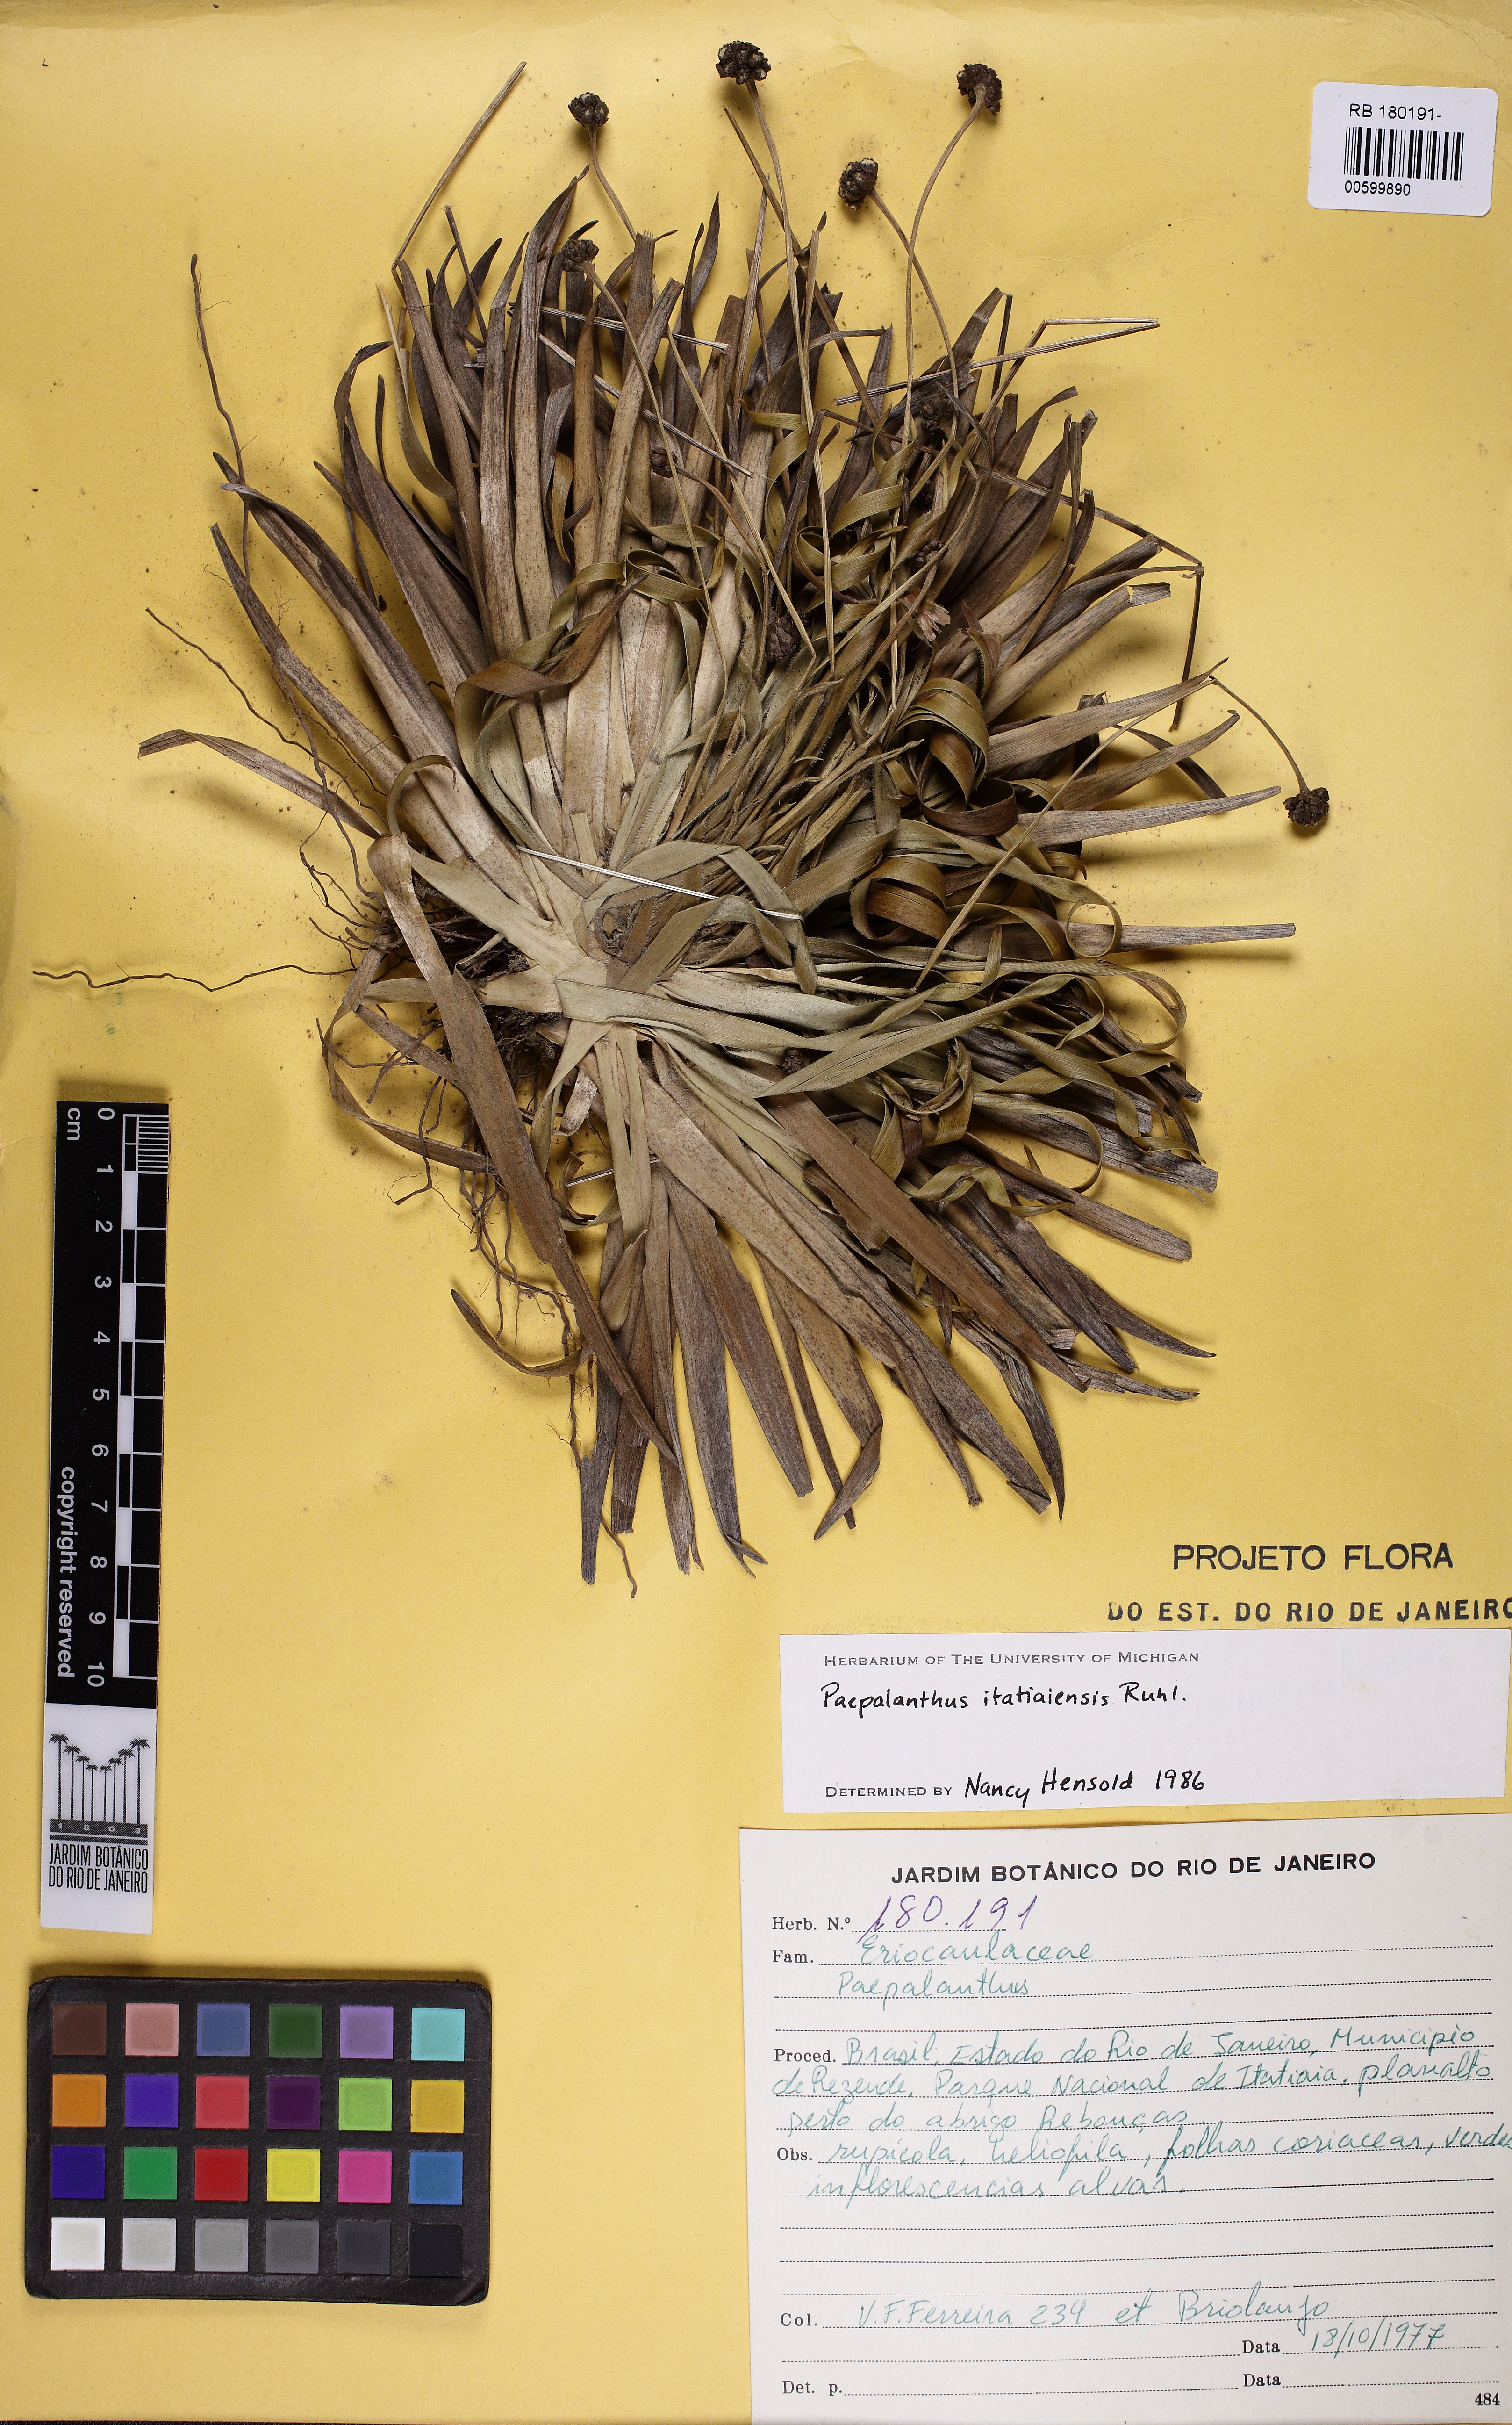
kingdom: Plantae
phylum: Tracheophyta
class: Liliopsida
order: Poales
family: Eriocaulaceae
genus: Paepalanthus
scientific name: Paepalanthus itatiaiensis
